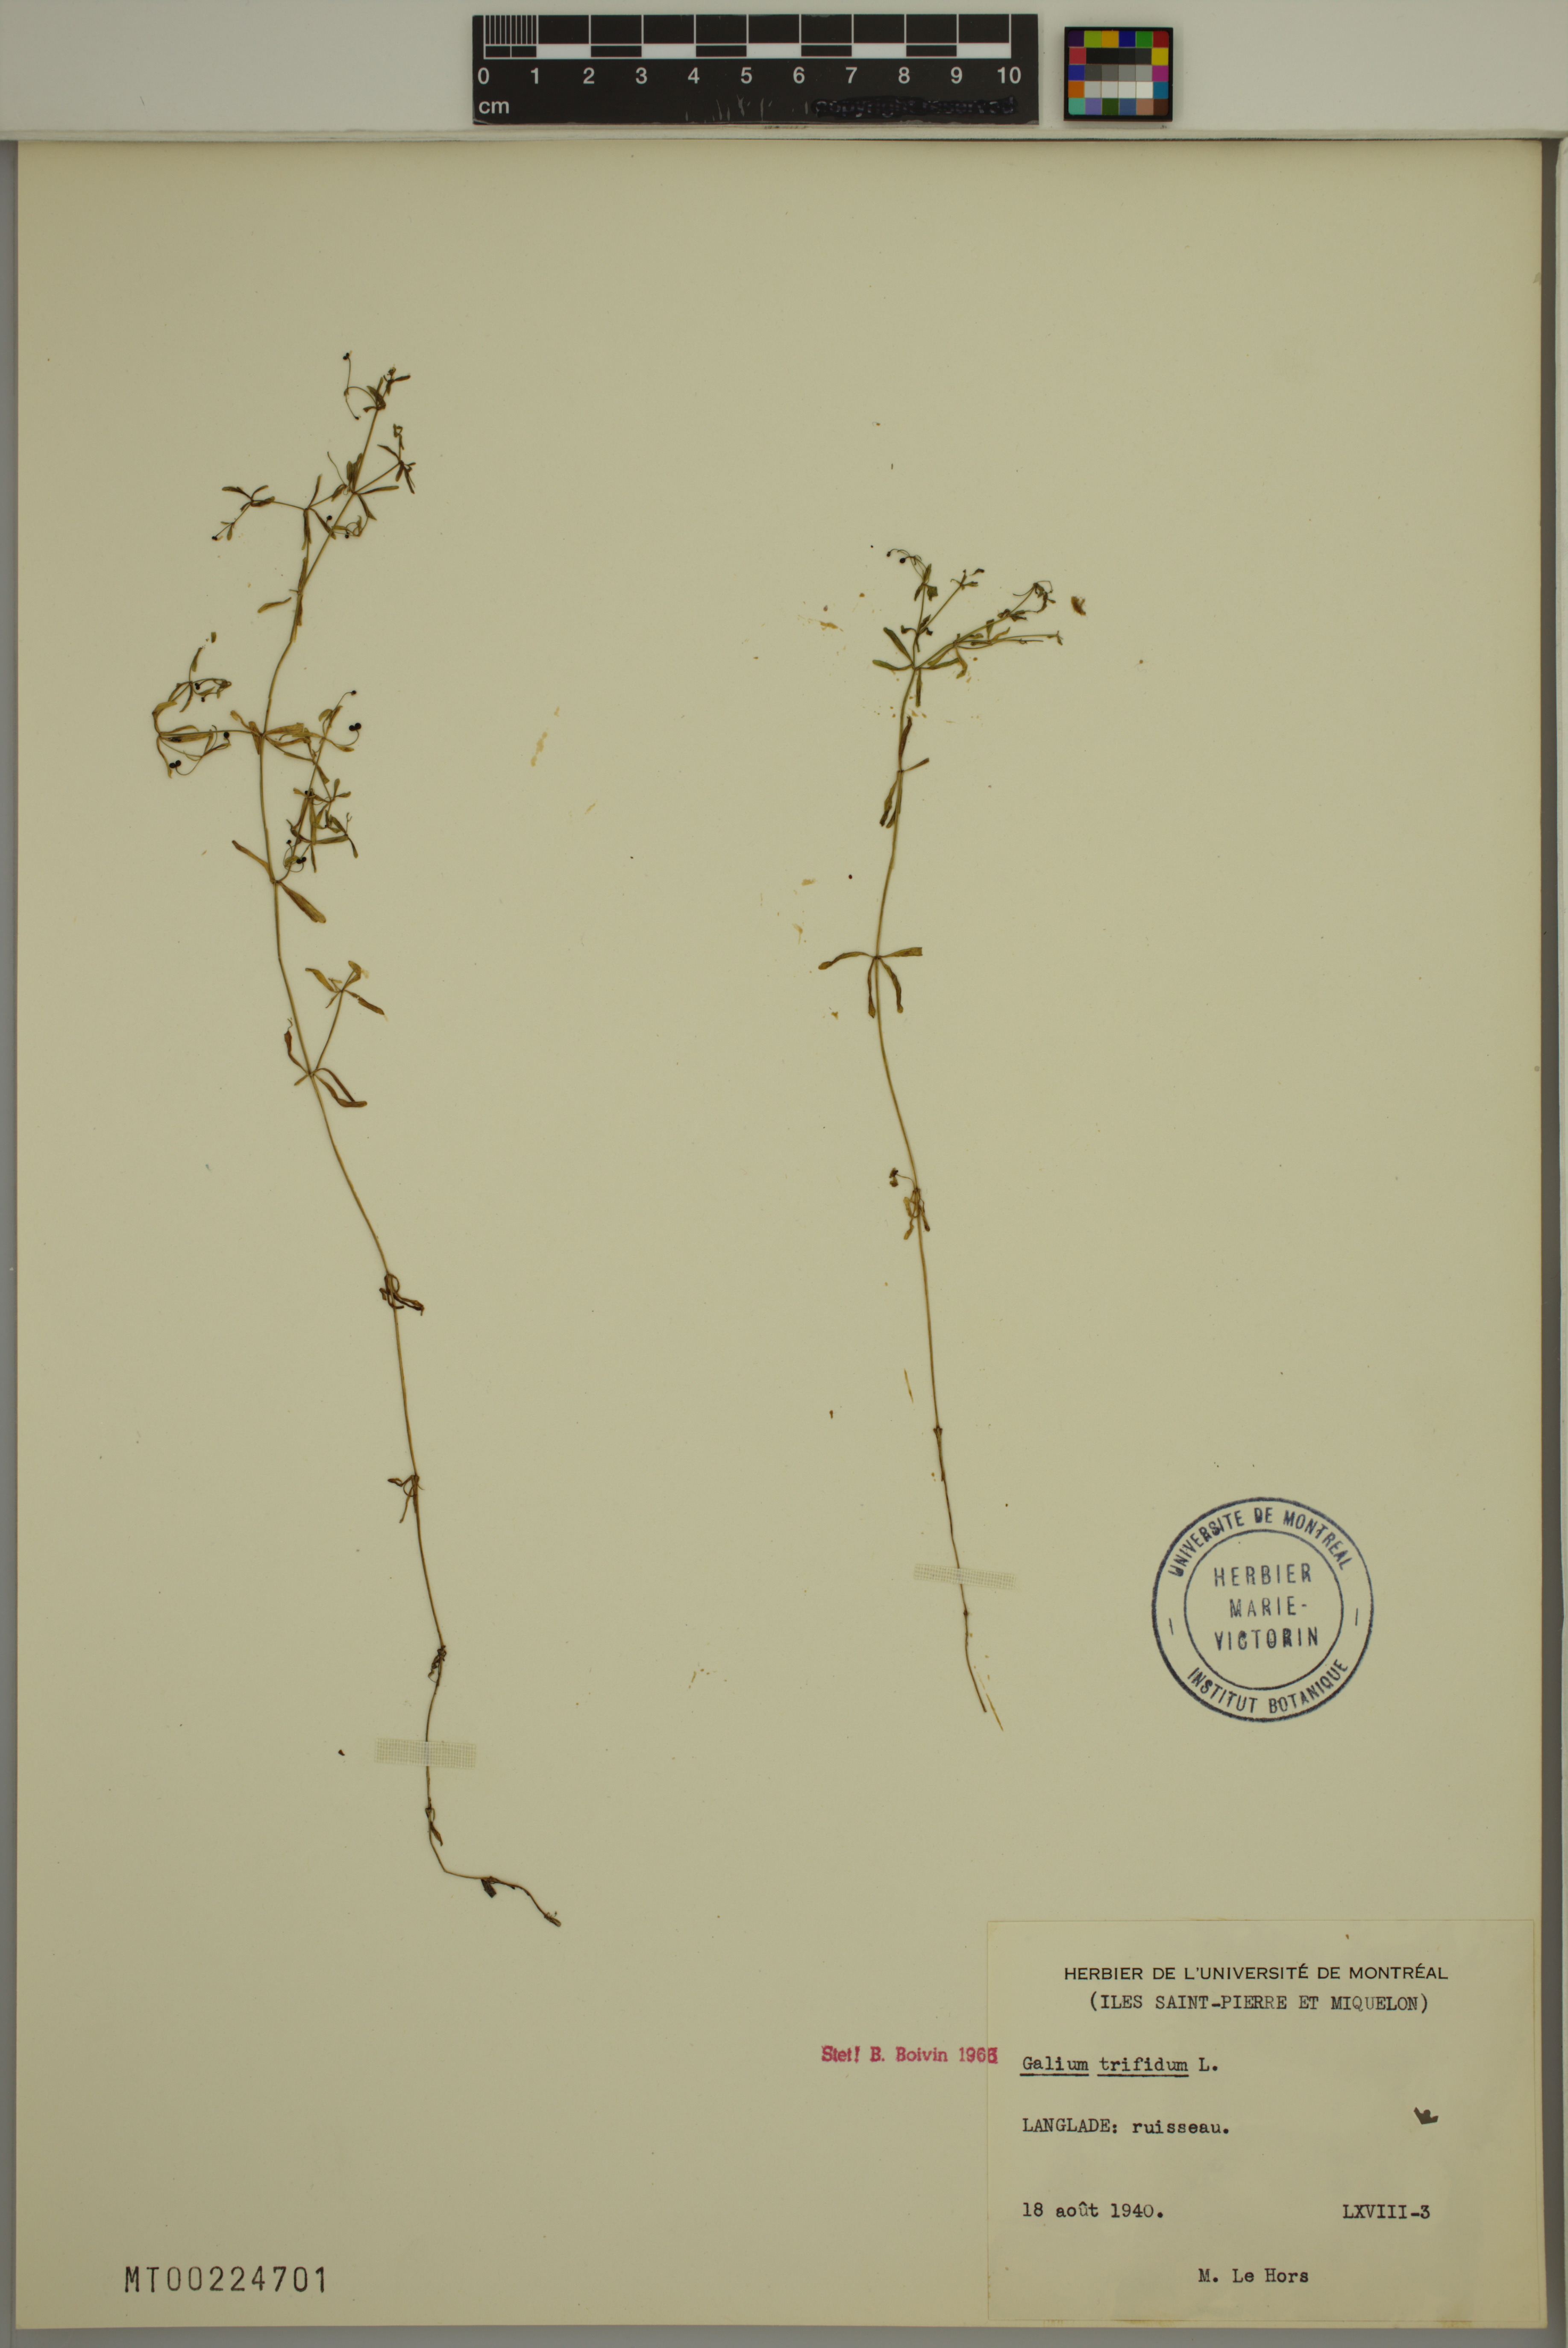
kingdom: Plantae
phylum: Tracheophyta
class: Magnoliopsida
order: Gentianales
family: Rubiaceae
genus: Galium
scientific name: Galium trifidum
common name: Small bedstraw
